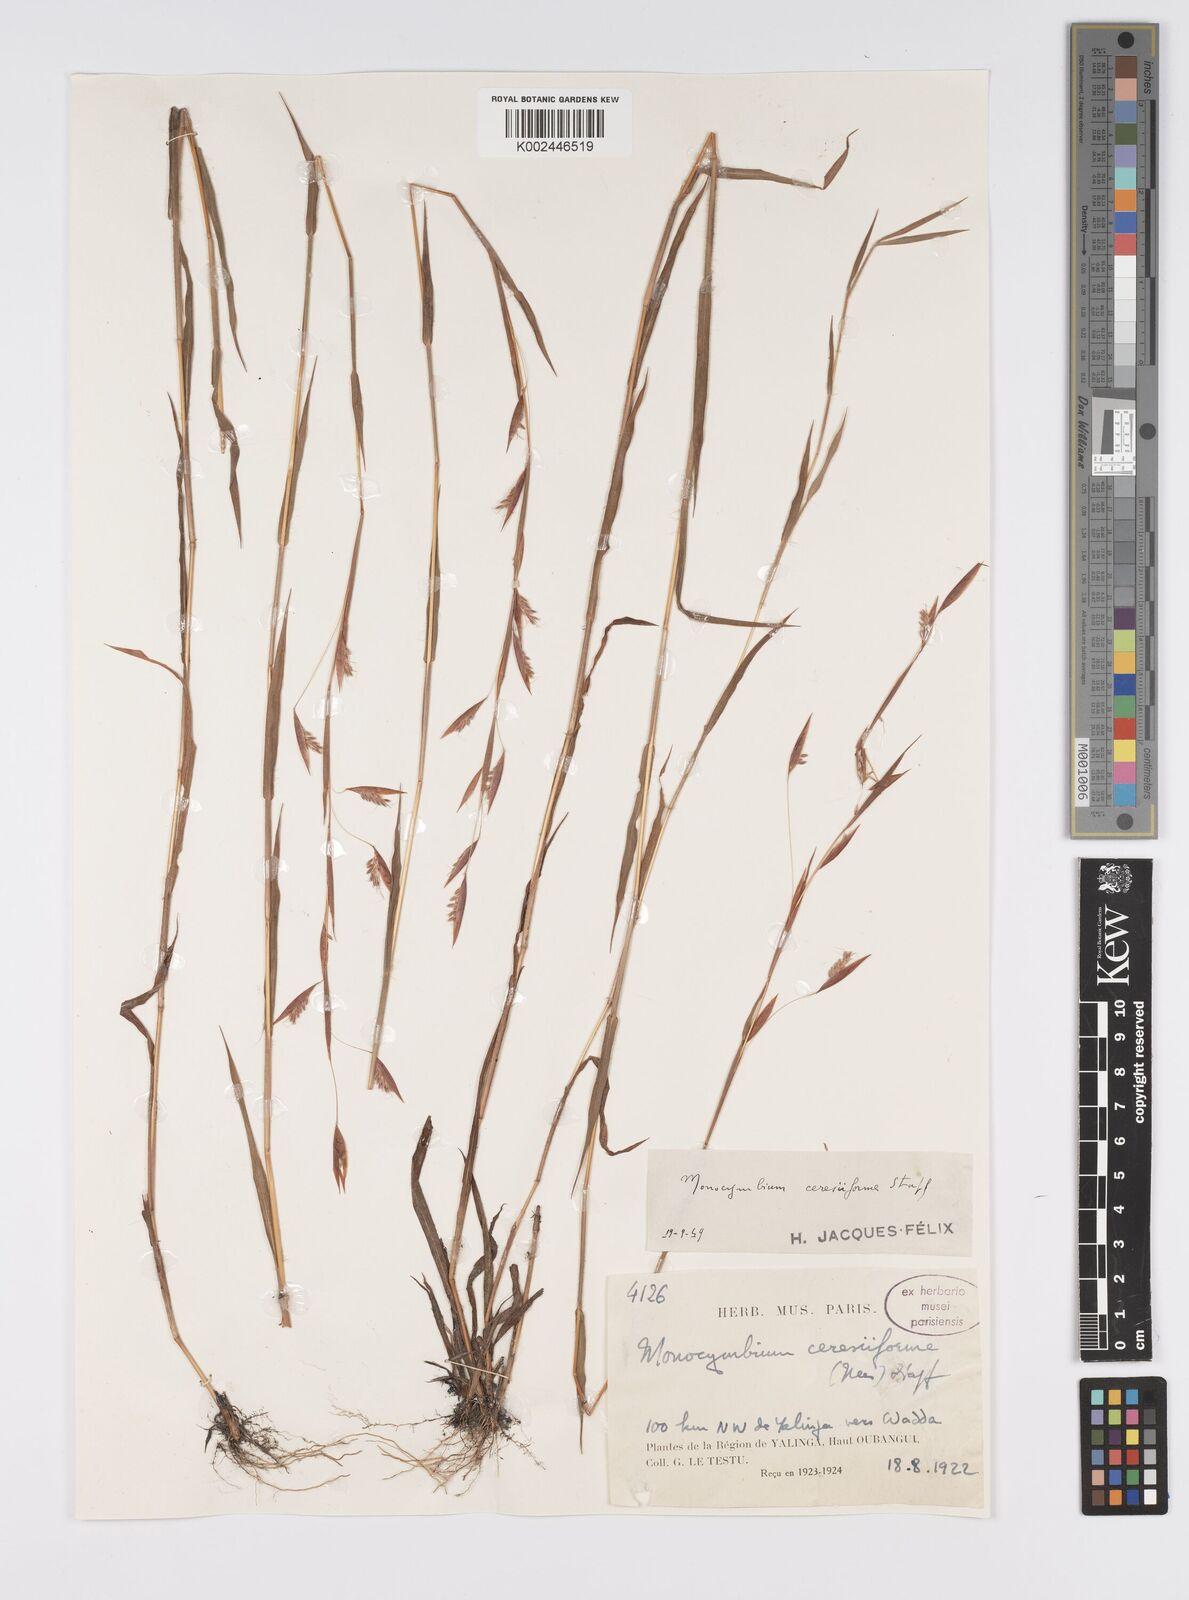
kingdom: Plantae
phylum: Tracheophyta
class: Liliopsida
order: Poales
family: Poaceae
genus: Monocymbium
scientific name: Monocymbium ceresiiforme
